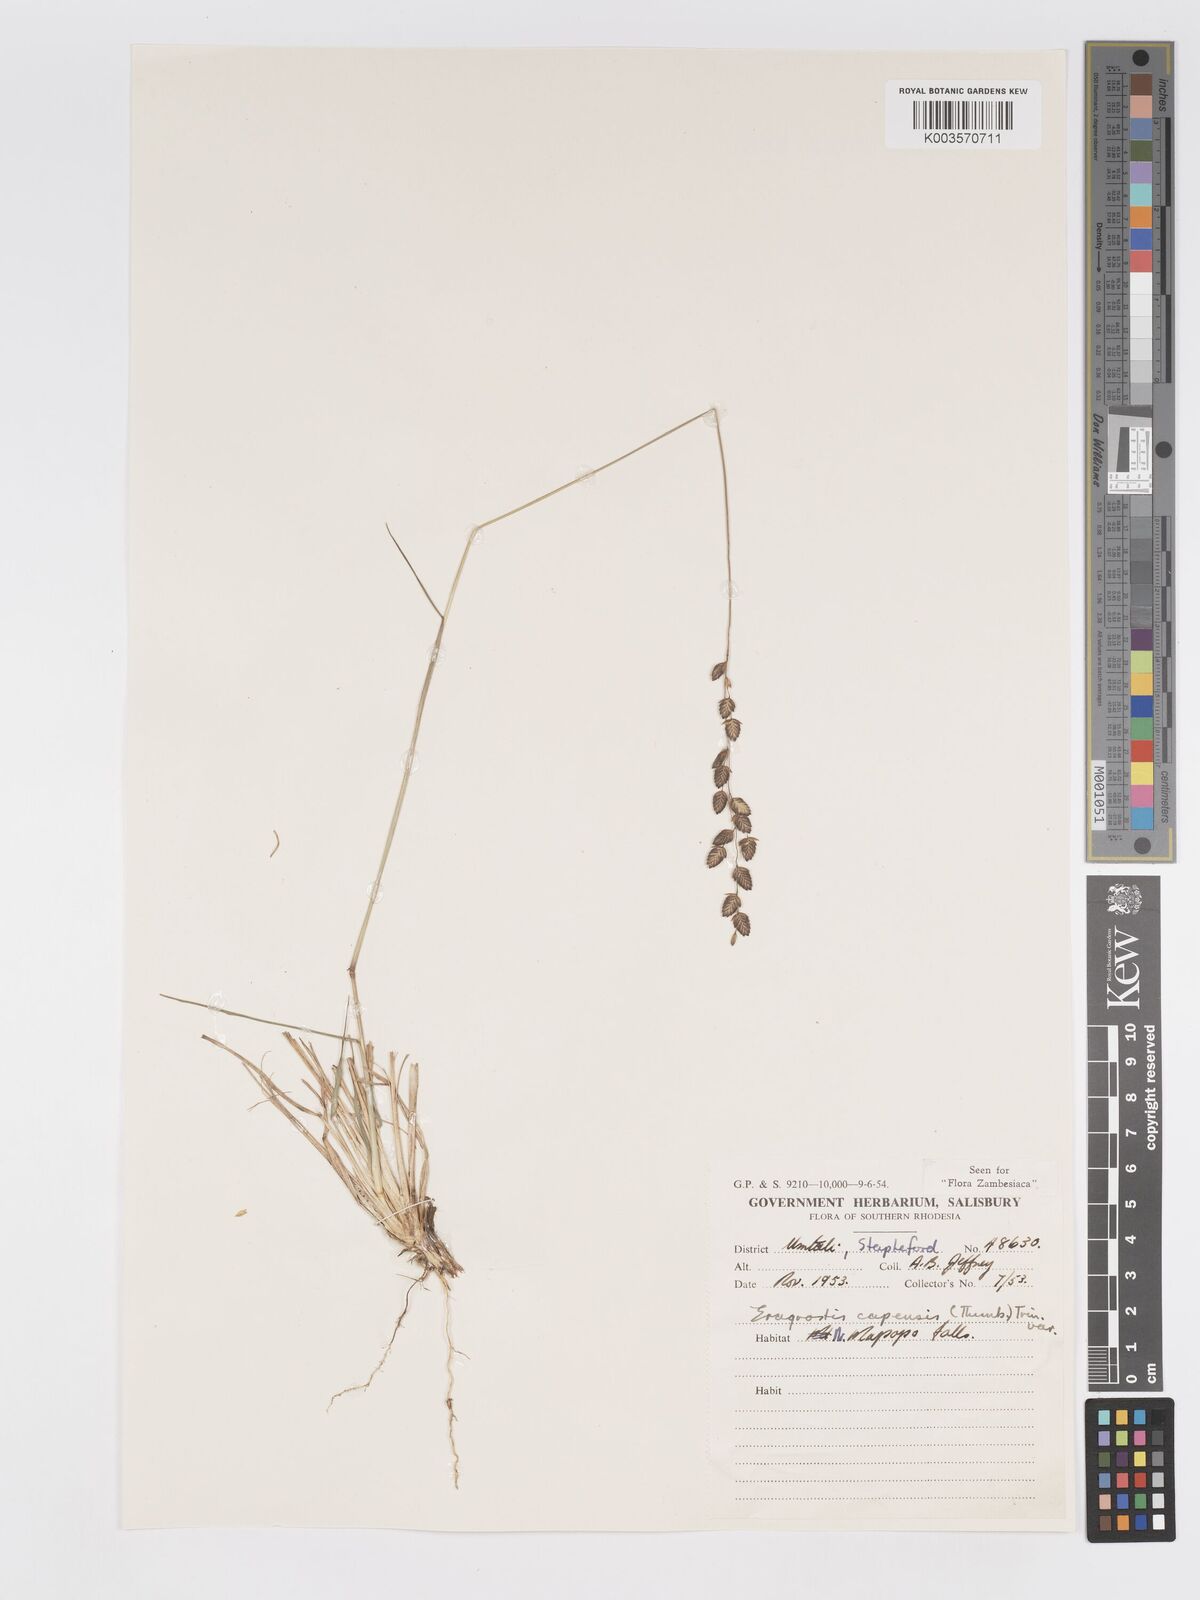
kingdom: Plantae
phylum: Tracheophyta
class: Liliopsida
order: Poales
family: Poaceae
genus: Eragrostis
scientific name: Eragrostis capensis
